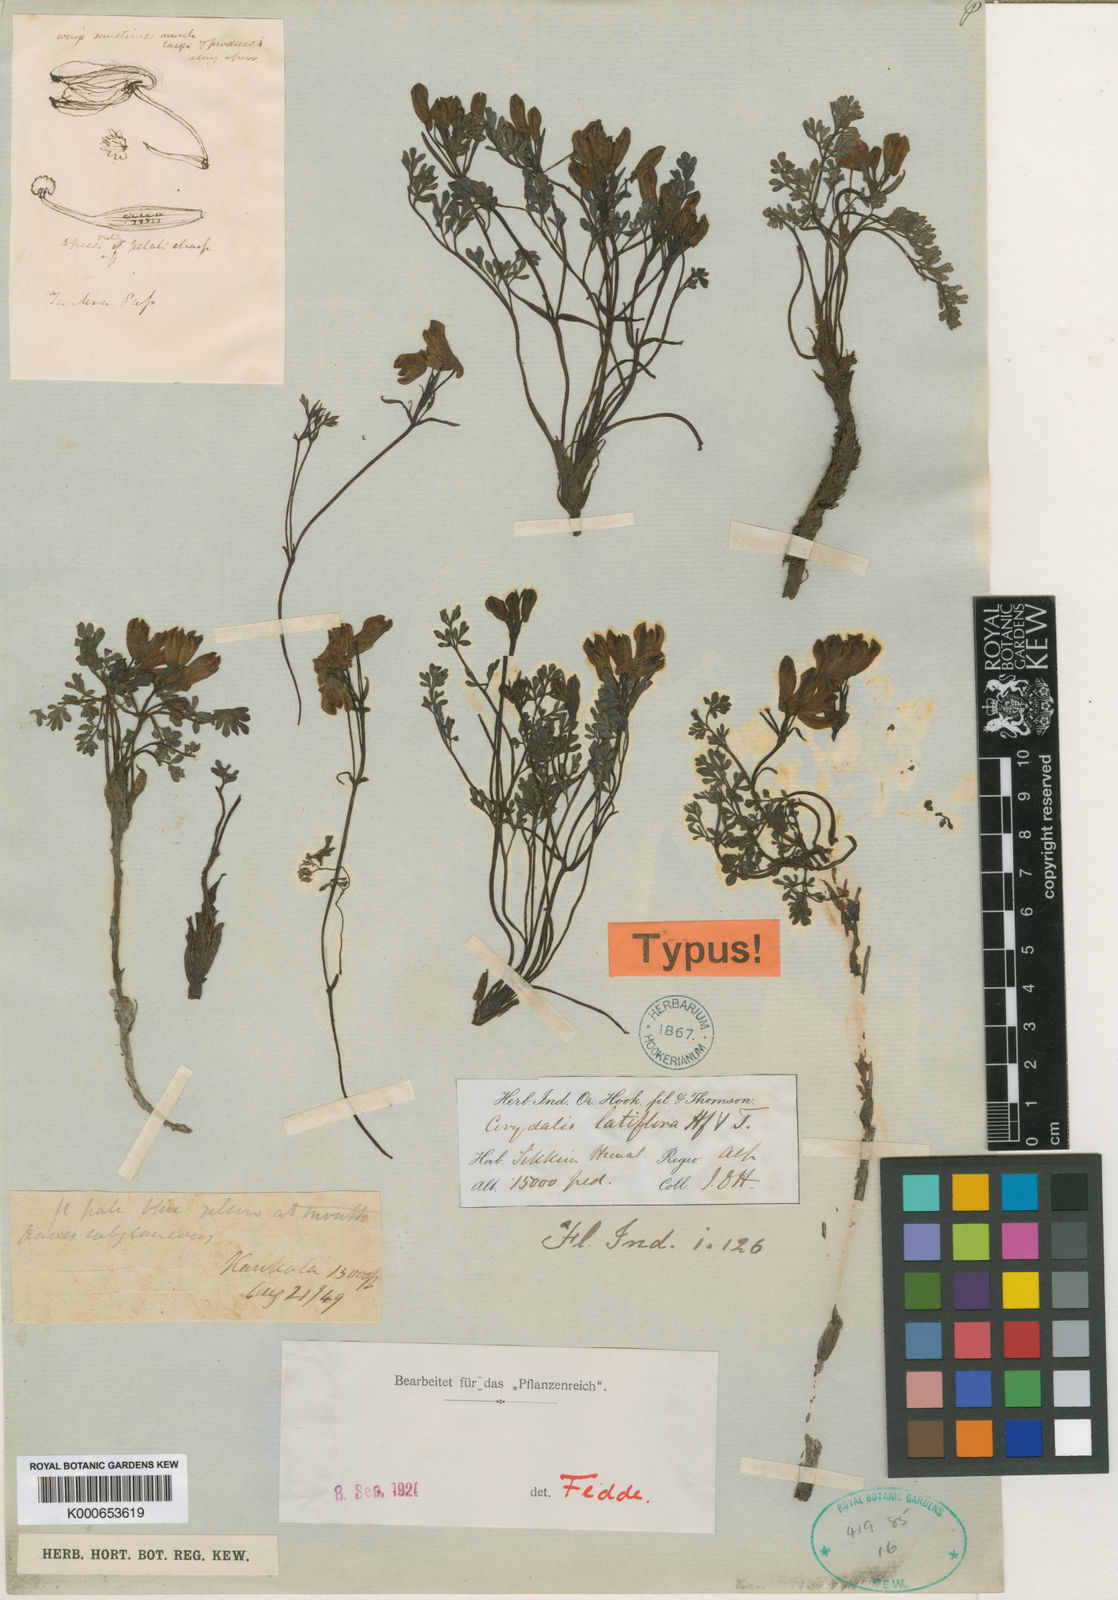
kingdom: Plantae
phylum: Tracheophyta
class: Magnoliopsida
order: Ranunculales
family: Papaveraceae
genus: Corydalis
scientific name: Corydalis latiflora
